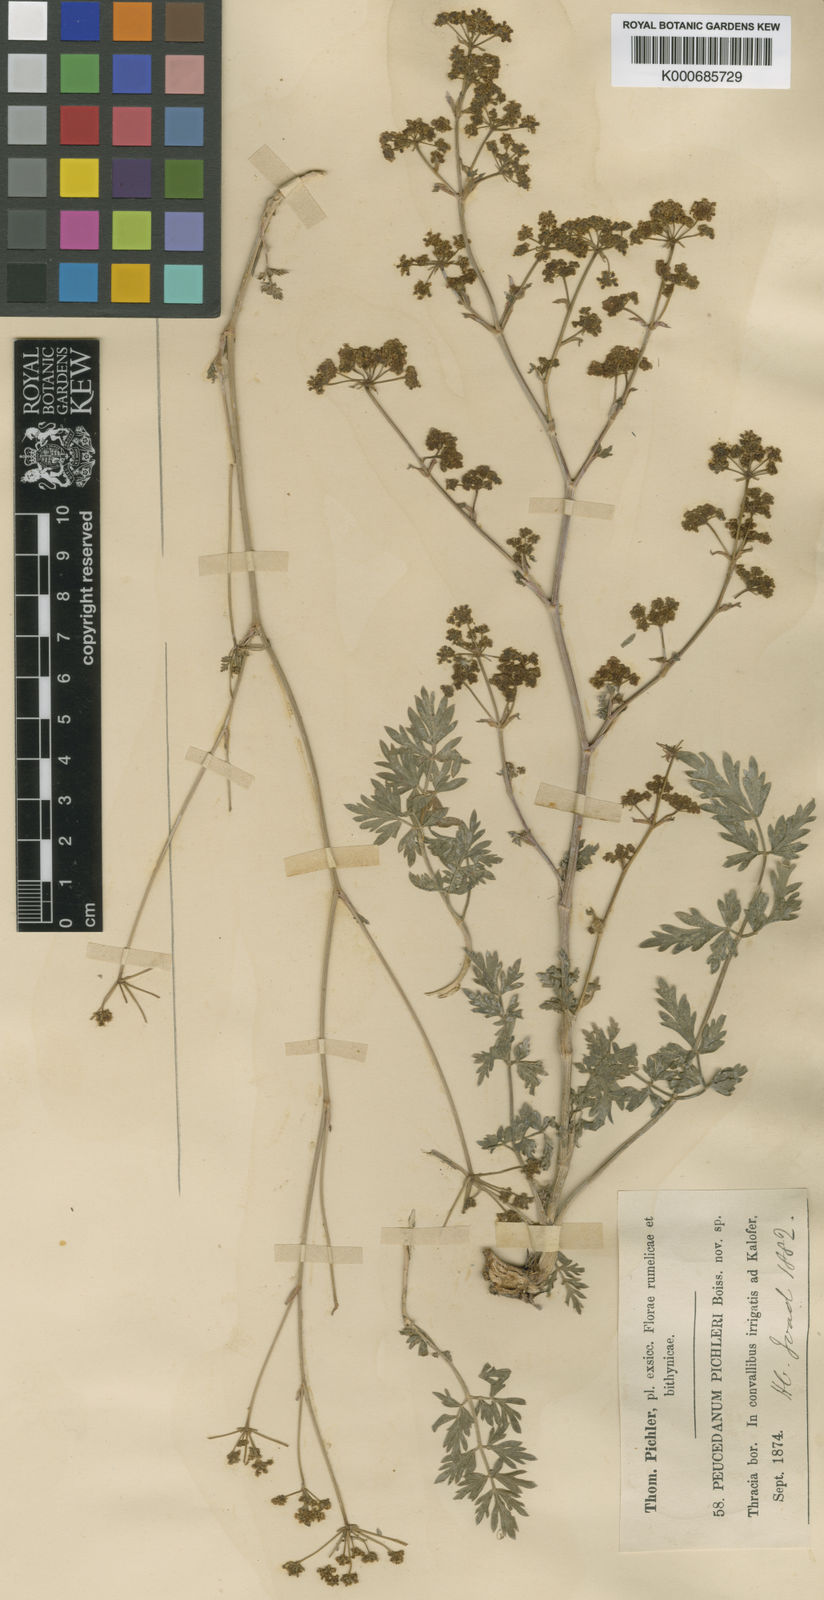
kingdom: Plantae
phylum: Tracheophyta
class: Magnoliopsida
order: Apiales
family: Apiaceae
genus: Peucedanum
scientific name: Peucedanum
